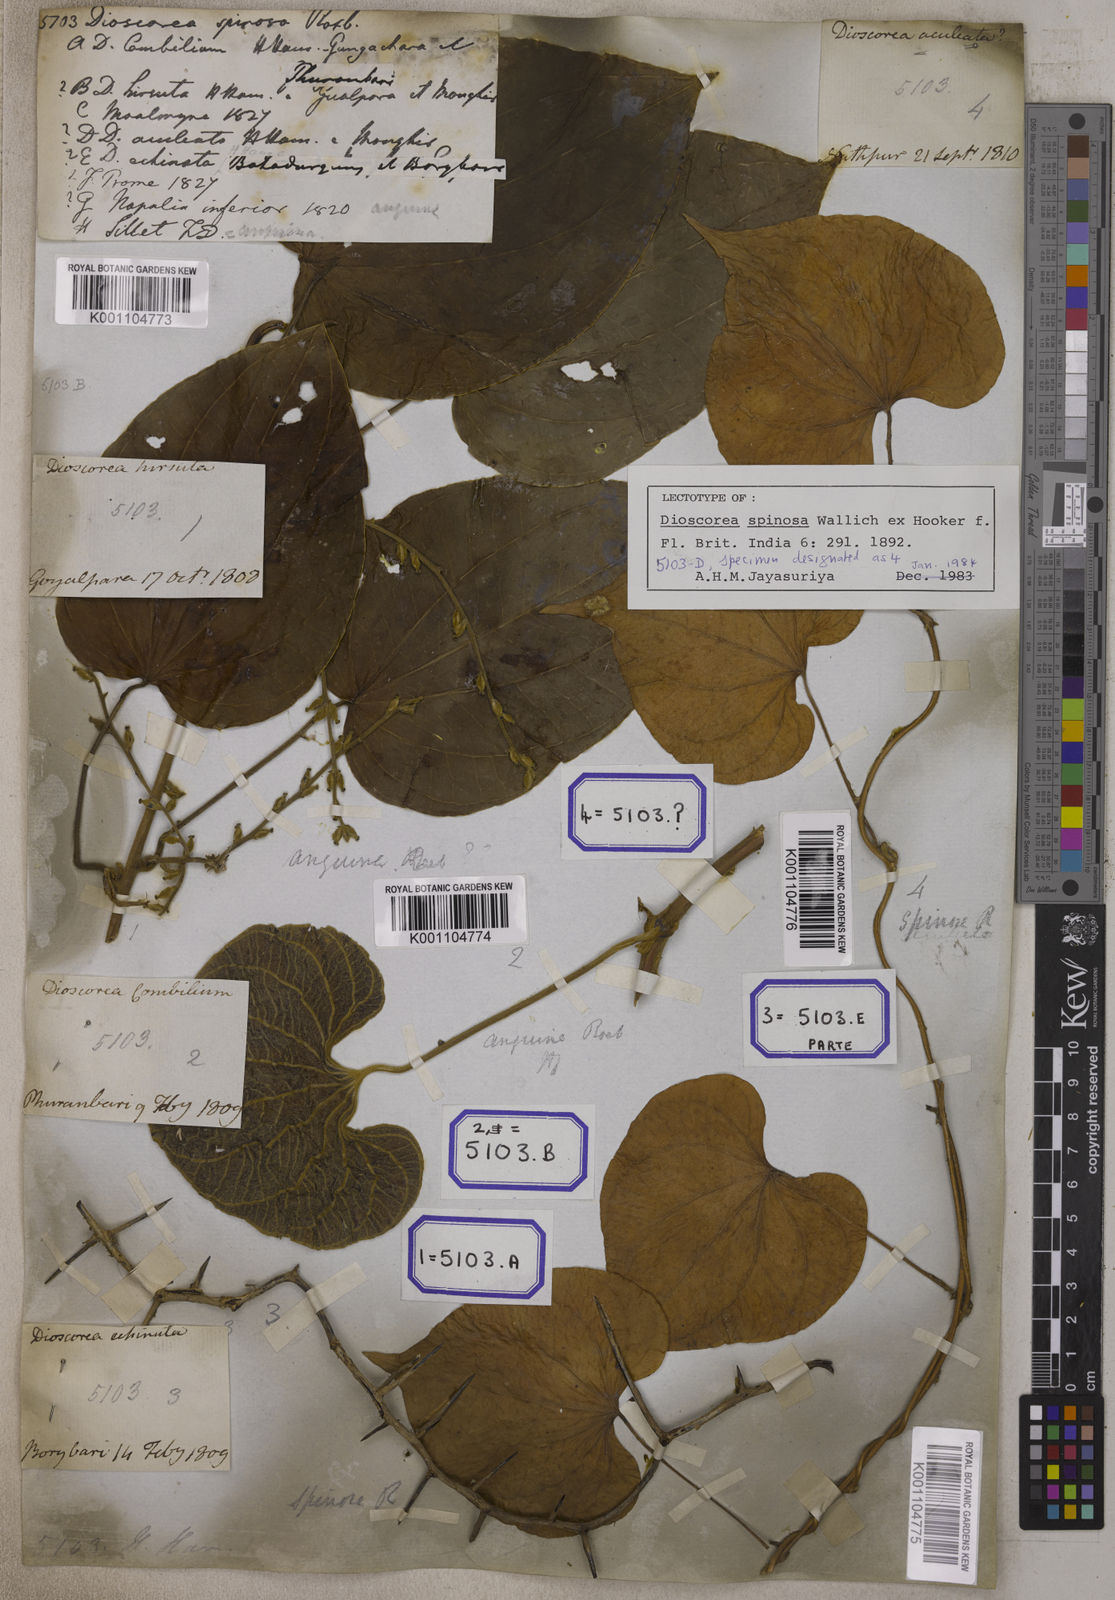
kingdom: Plantae
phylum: Tracheophyta
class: Liliopsida
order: Dioscoreales
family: Dioscoreaceae
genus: Dioscorea
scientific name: Dioscorea
